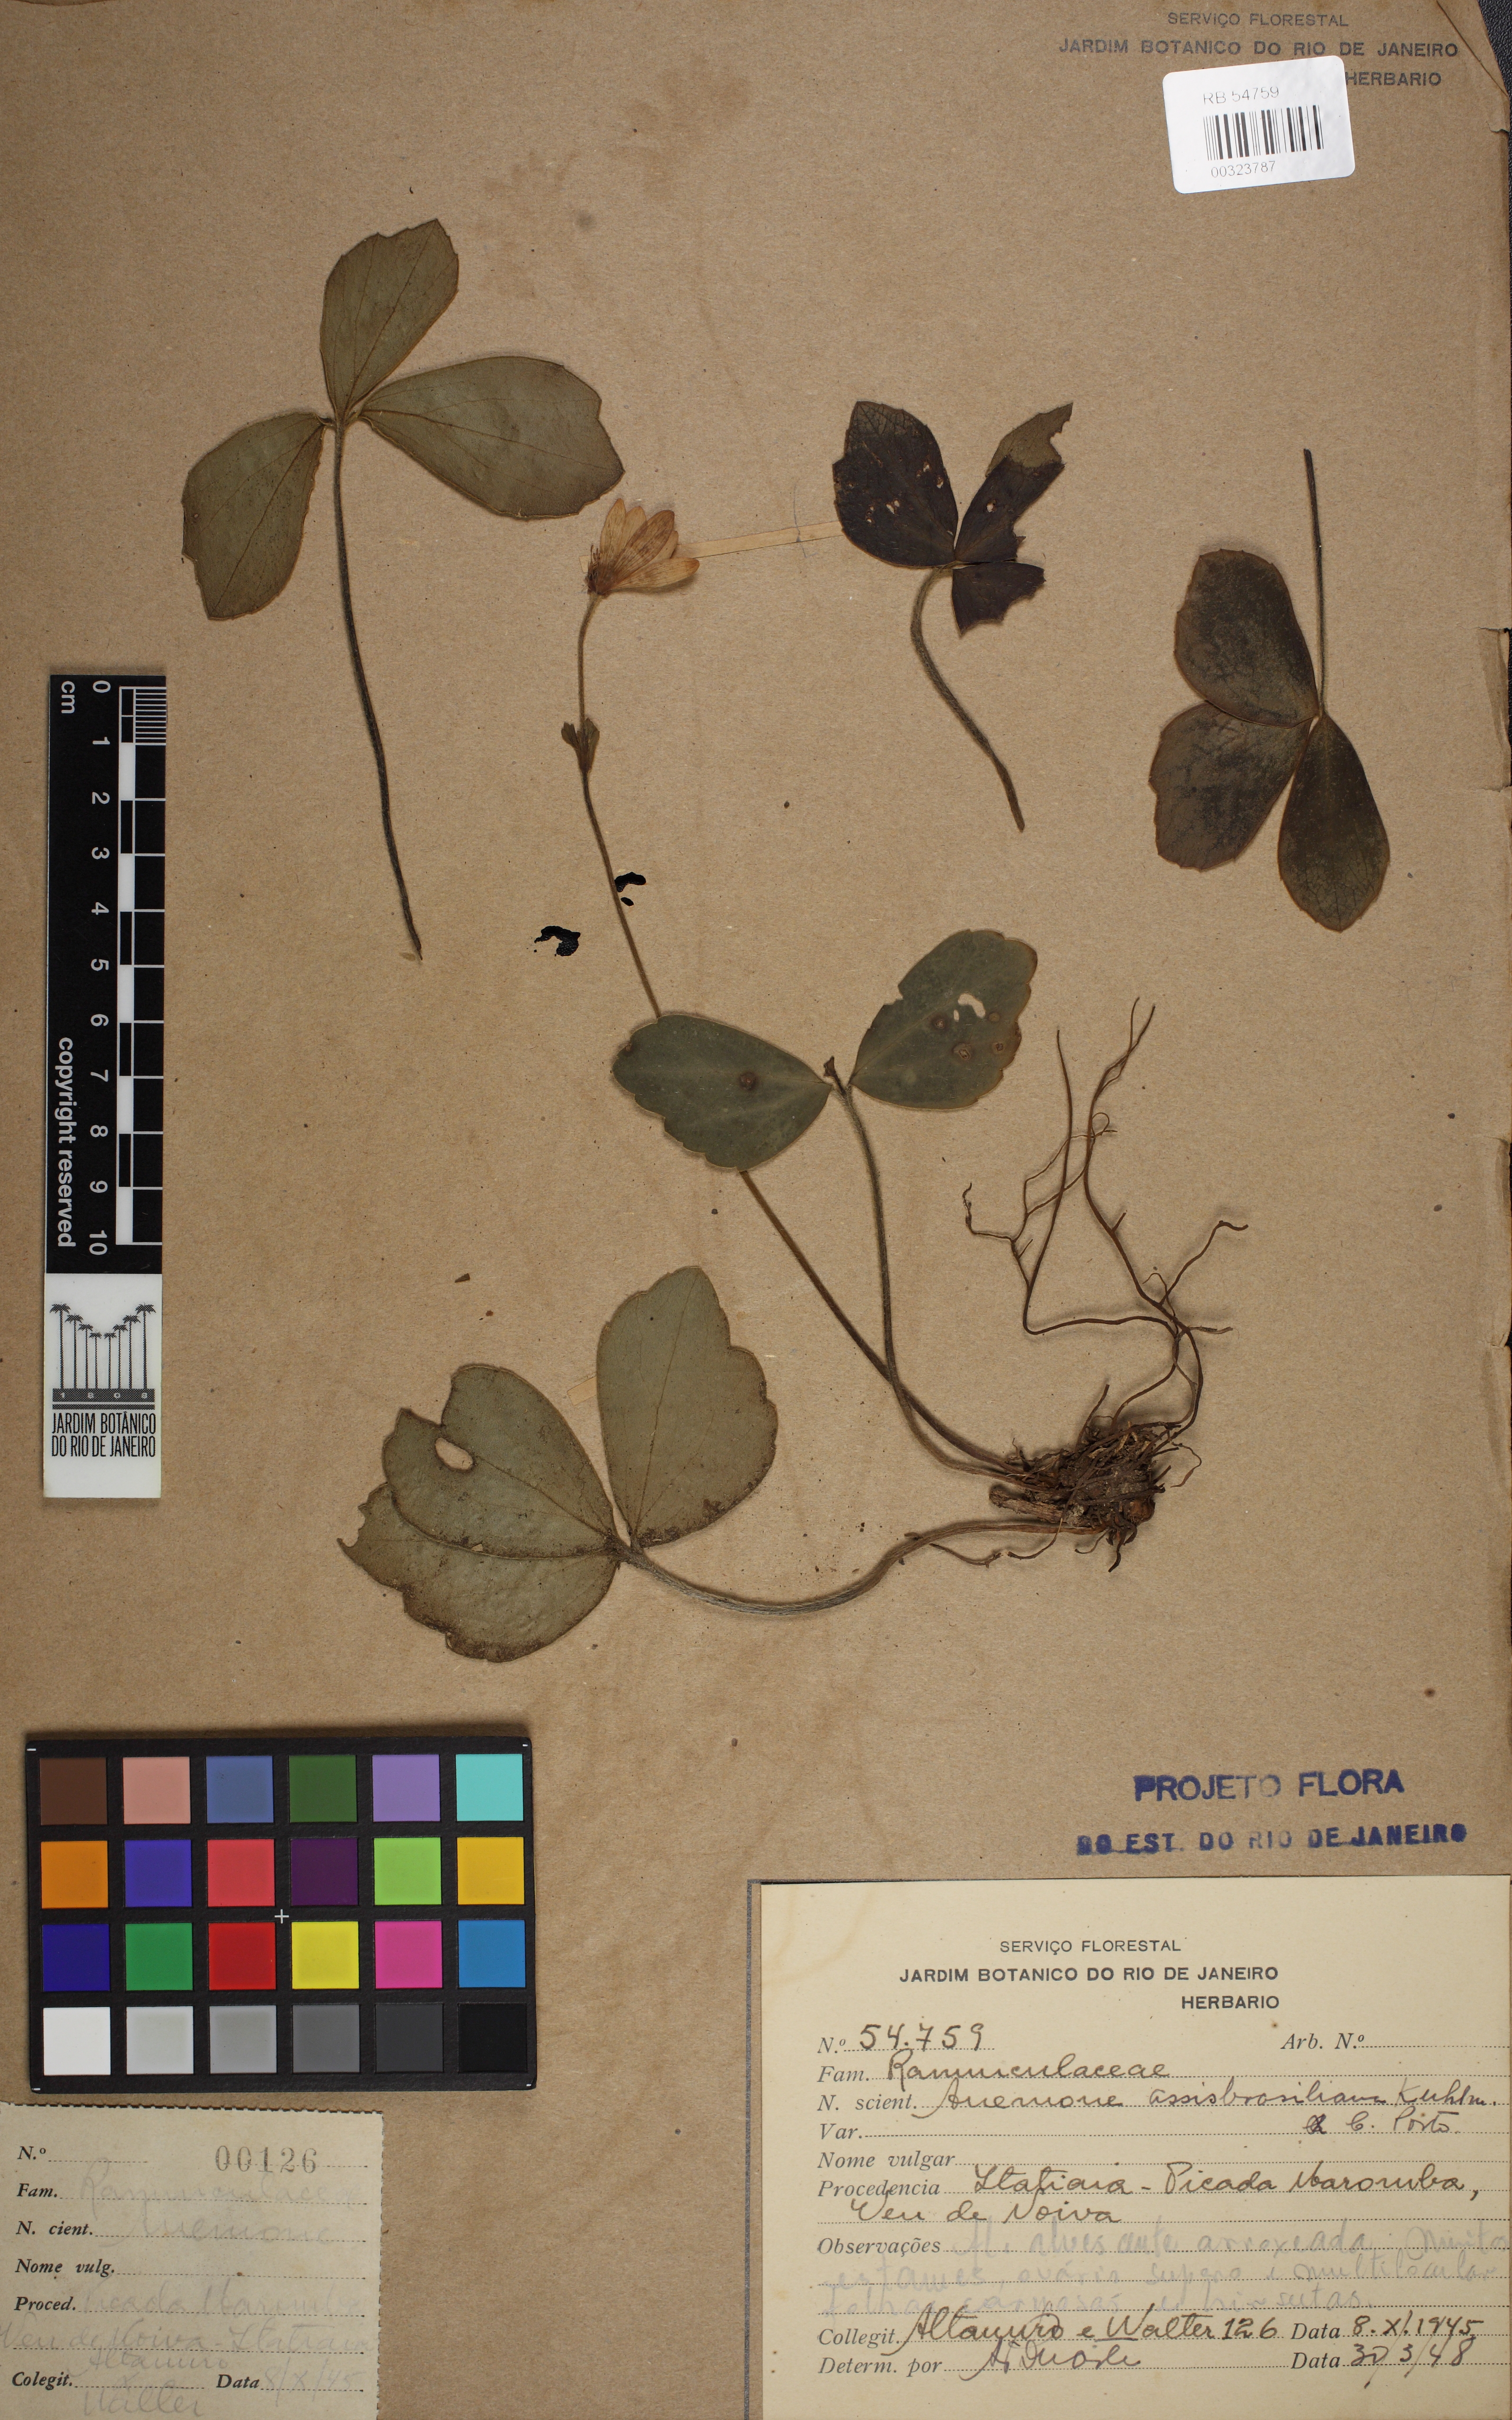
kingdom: Plantae
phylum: Tracheophyta
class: Magnoliopsida
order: Ranunculales
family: Ranunculaceae
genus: Knowltonia
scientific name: Knowltonia assisbrasiliana
